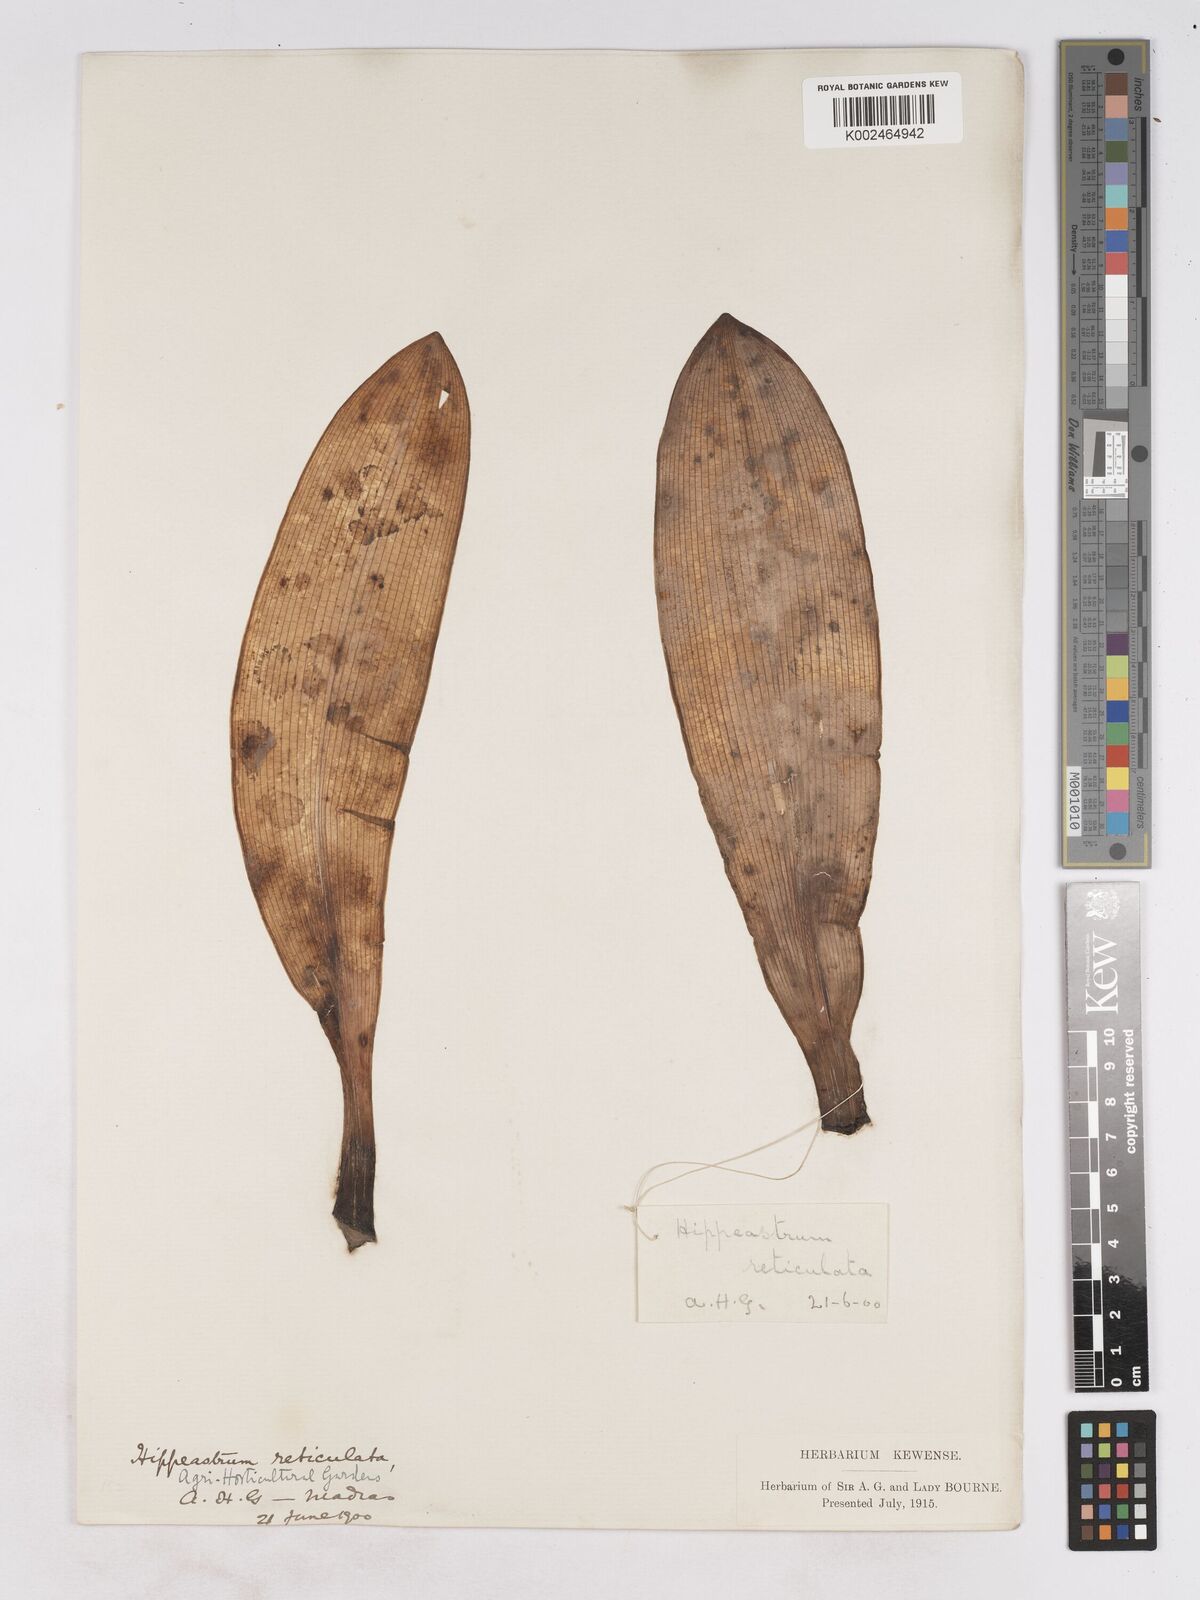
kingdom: Plantae
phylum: Tracheophyta
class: Liliopsida
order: Asparagales
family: Amaryllidaceae
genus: Hippeastrum
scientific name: Hippeastrum reticulatum
